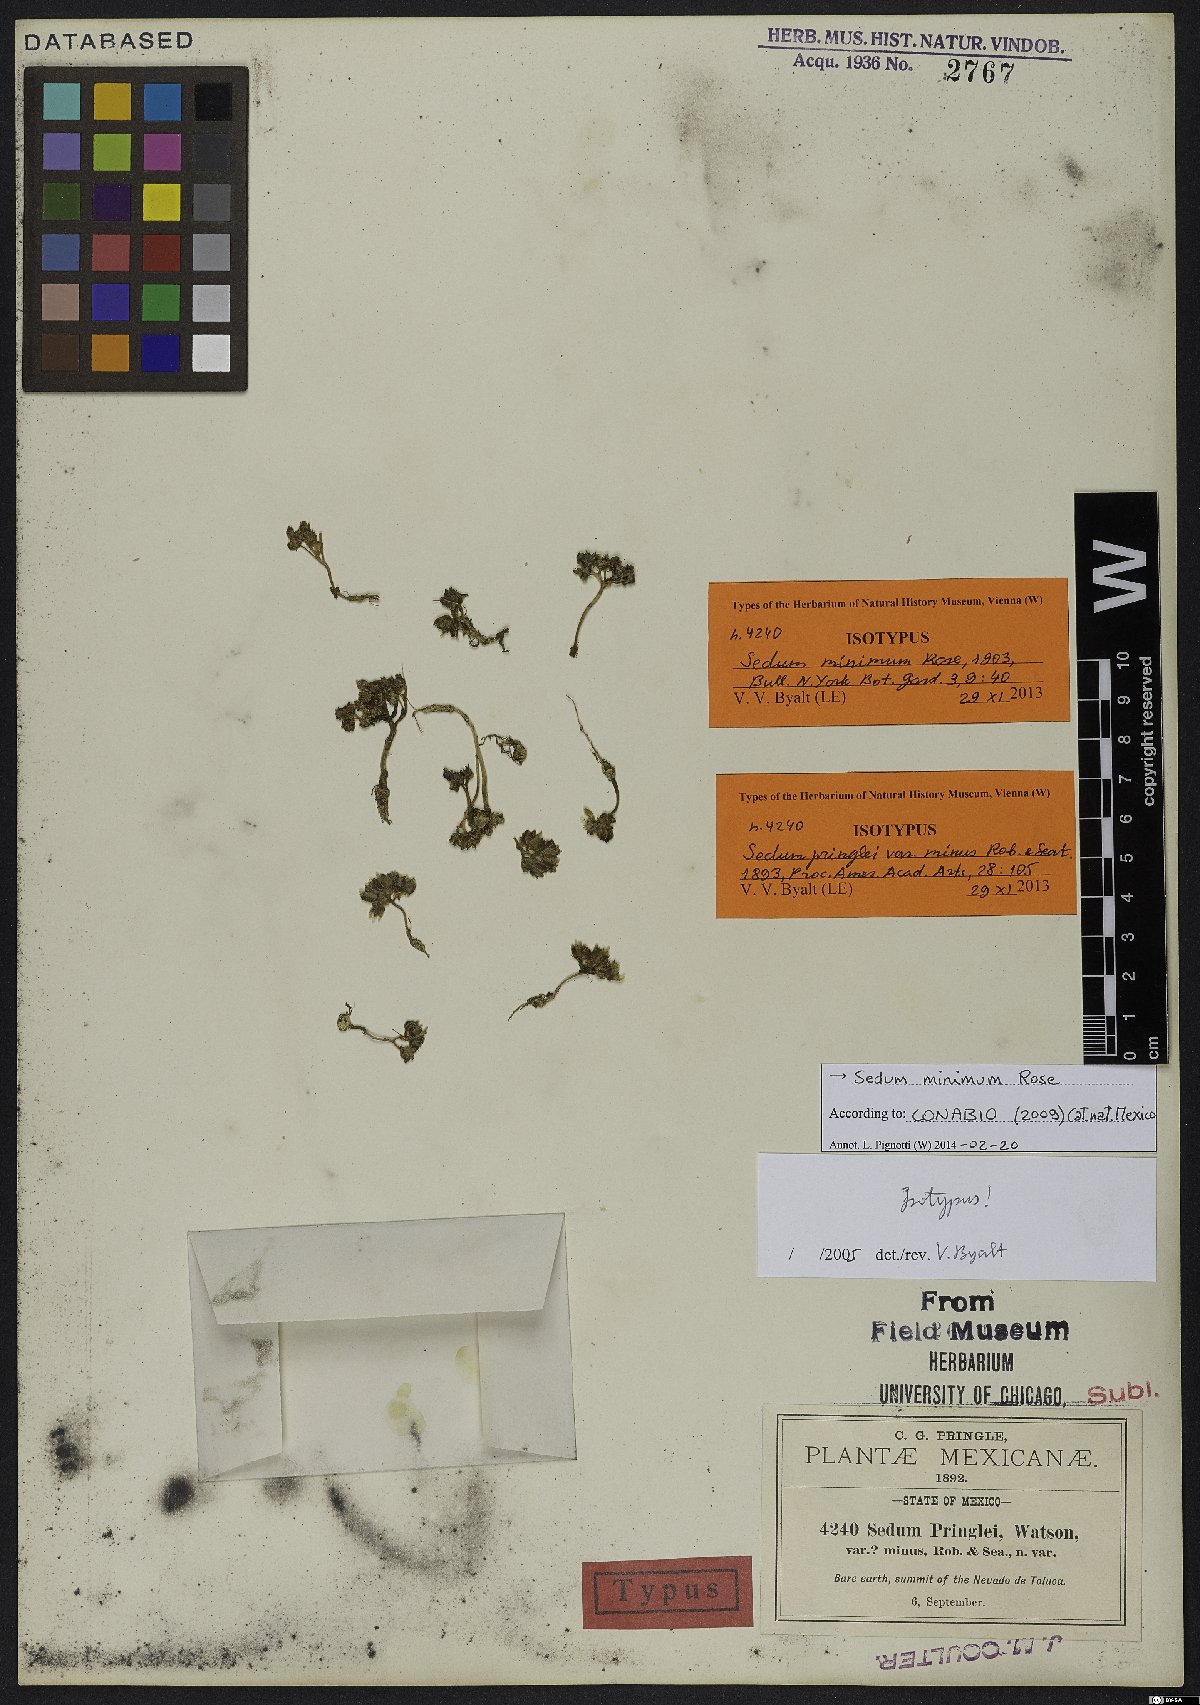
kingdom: Plantae
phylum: Tracheophyta
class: Magnoliopsida
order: Saxifragales
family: Crassulaceae
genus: Sedum
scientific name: Sedum minimum
